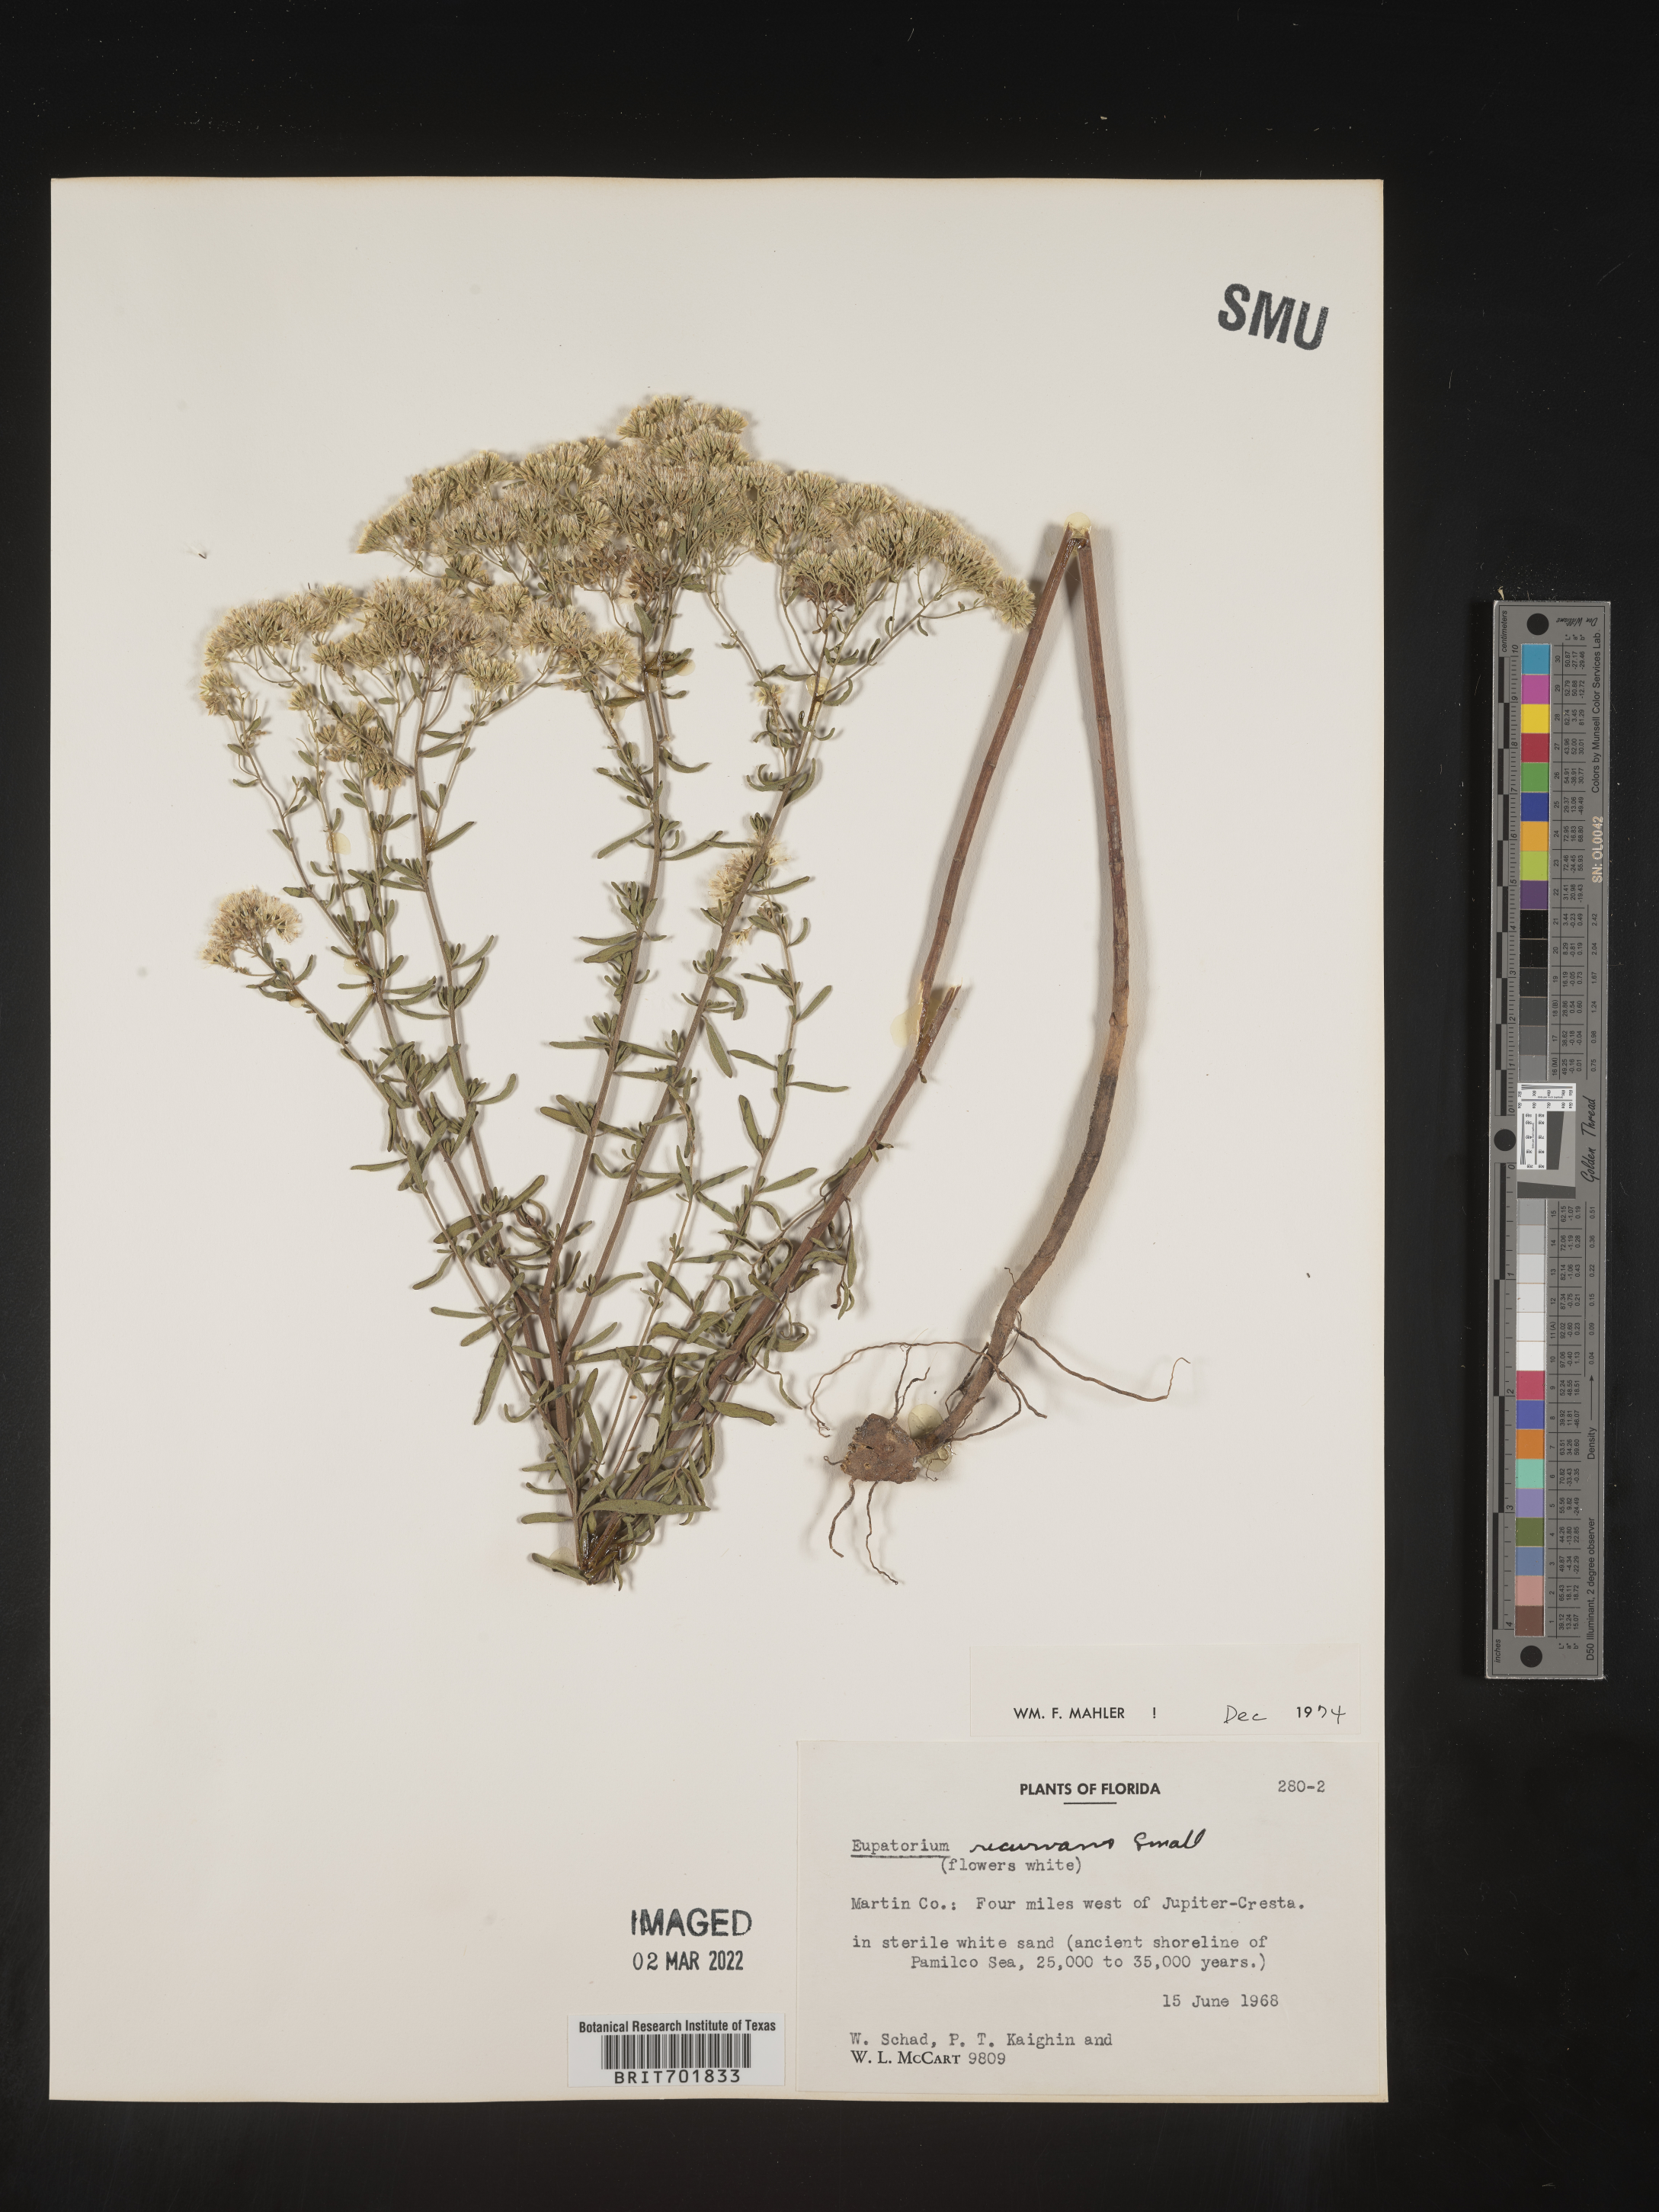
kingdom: Plantae
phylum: Tracheophyta
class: Magnoliopsida
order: Asterales
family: Asteraceae
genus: Eupatorium
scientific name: Eupatorium mohrii
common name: Mohr's thoroughwort
